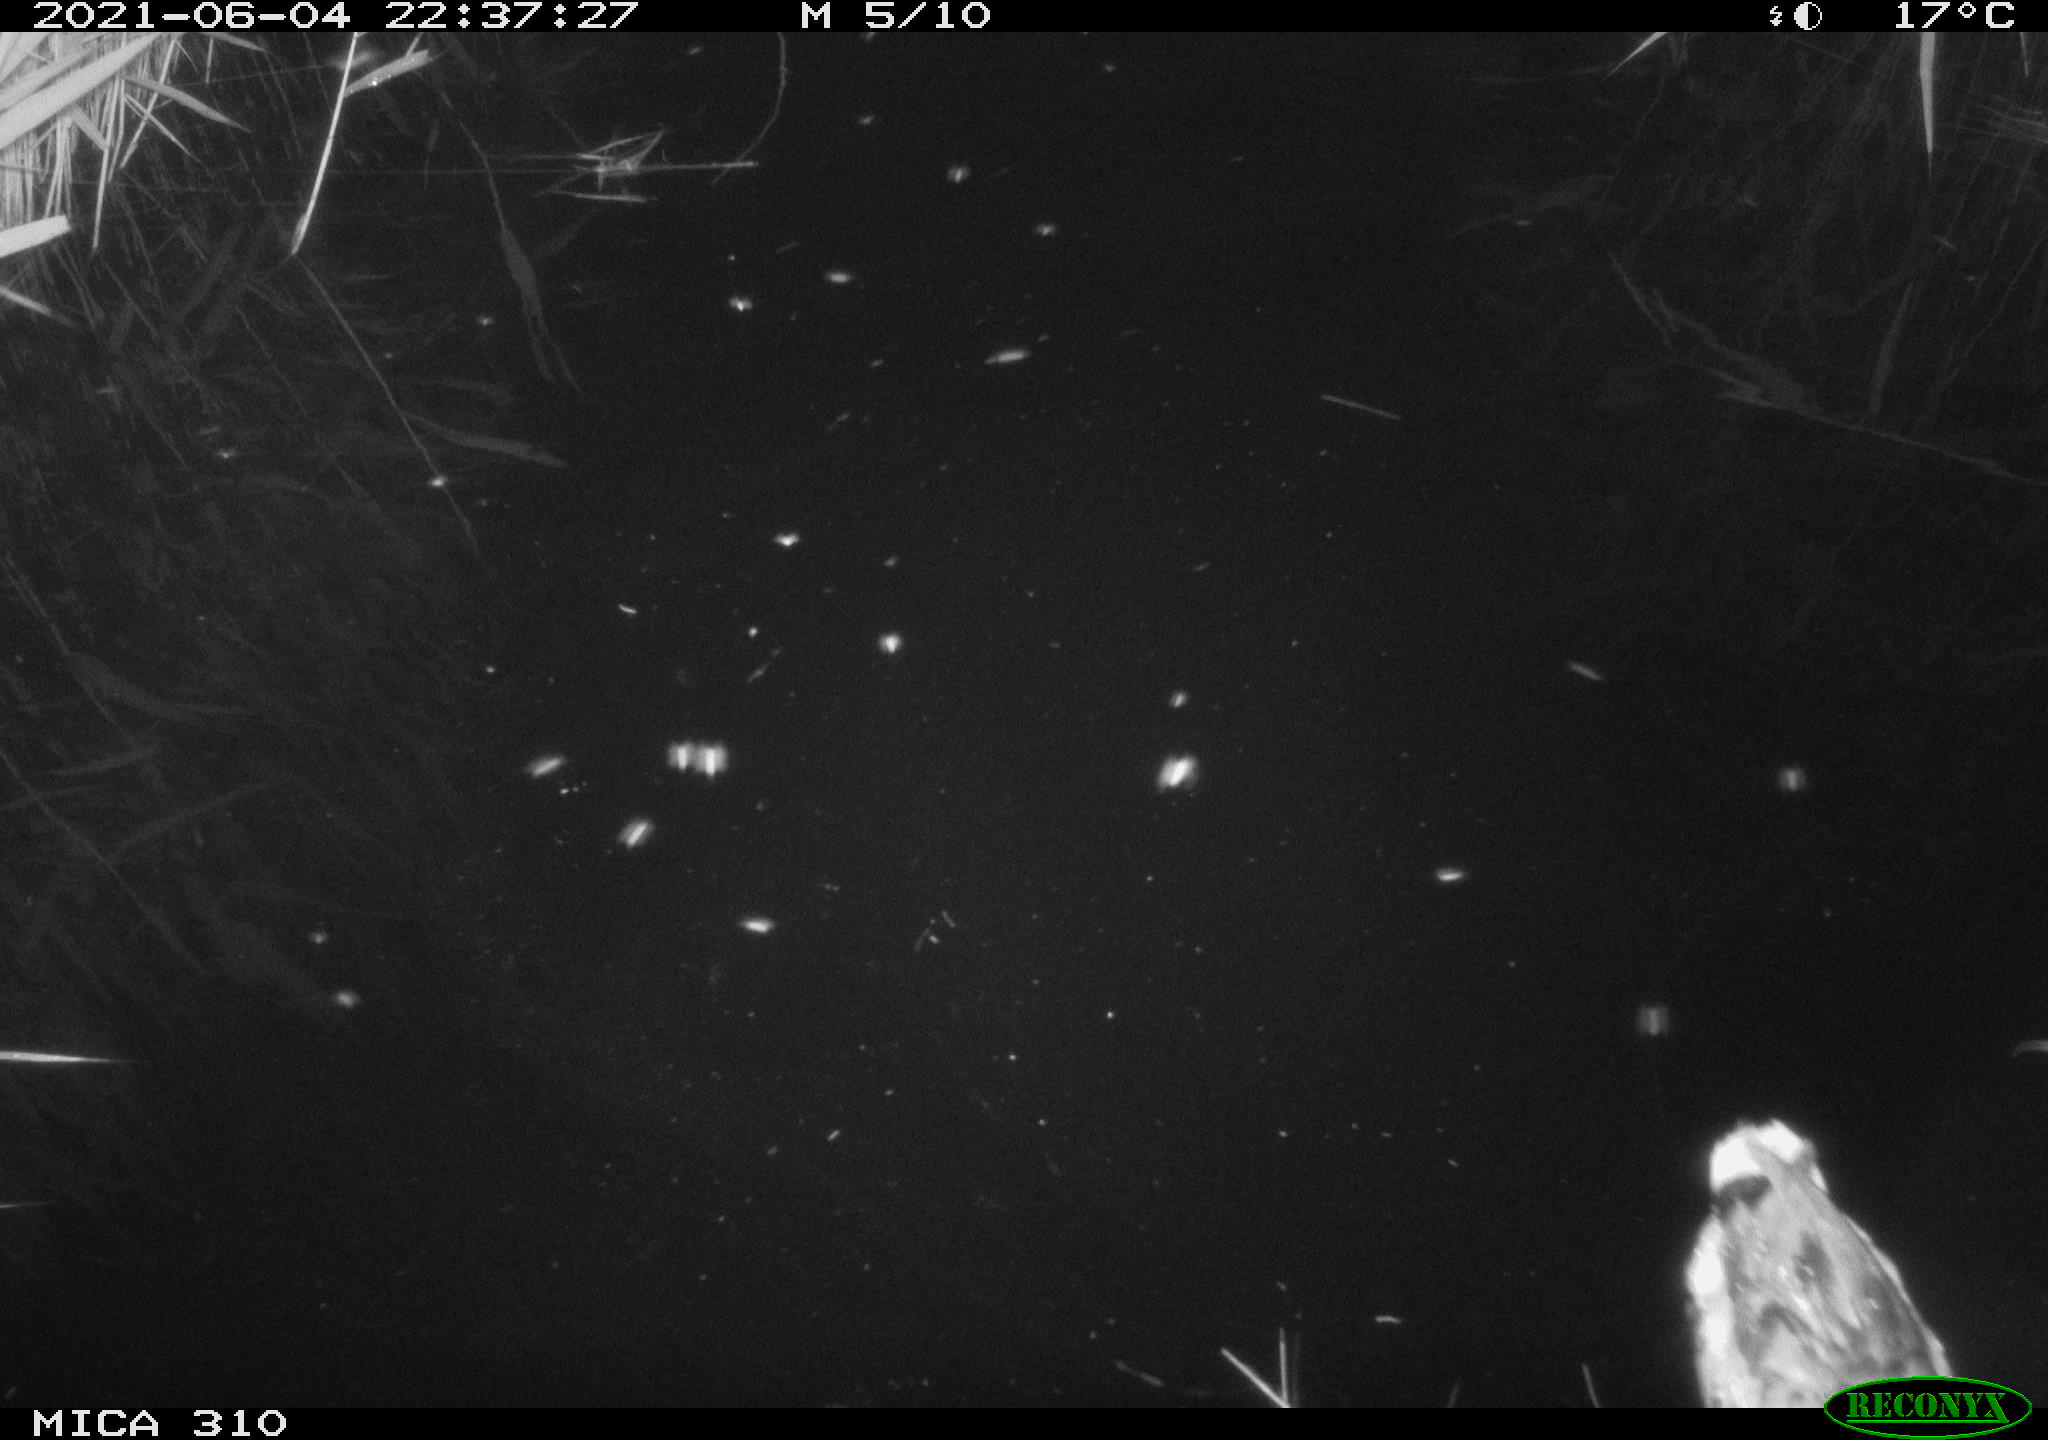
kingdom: Animalia
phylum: Chordata
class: Aves
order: Anseriformes
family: Anatidae
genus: Anas
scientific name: Anas
